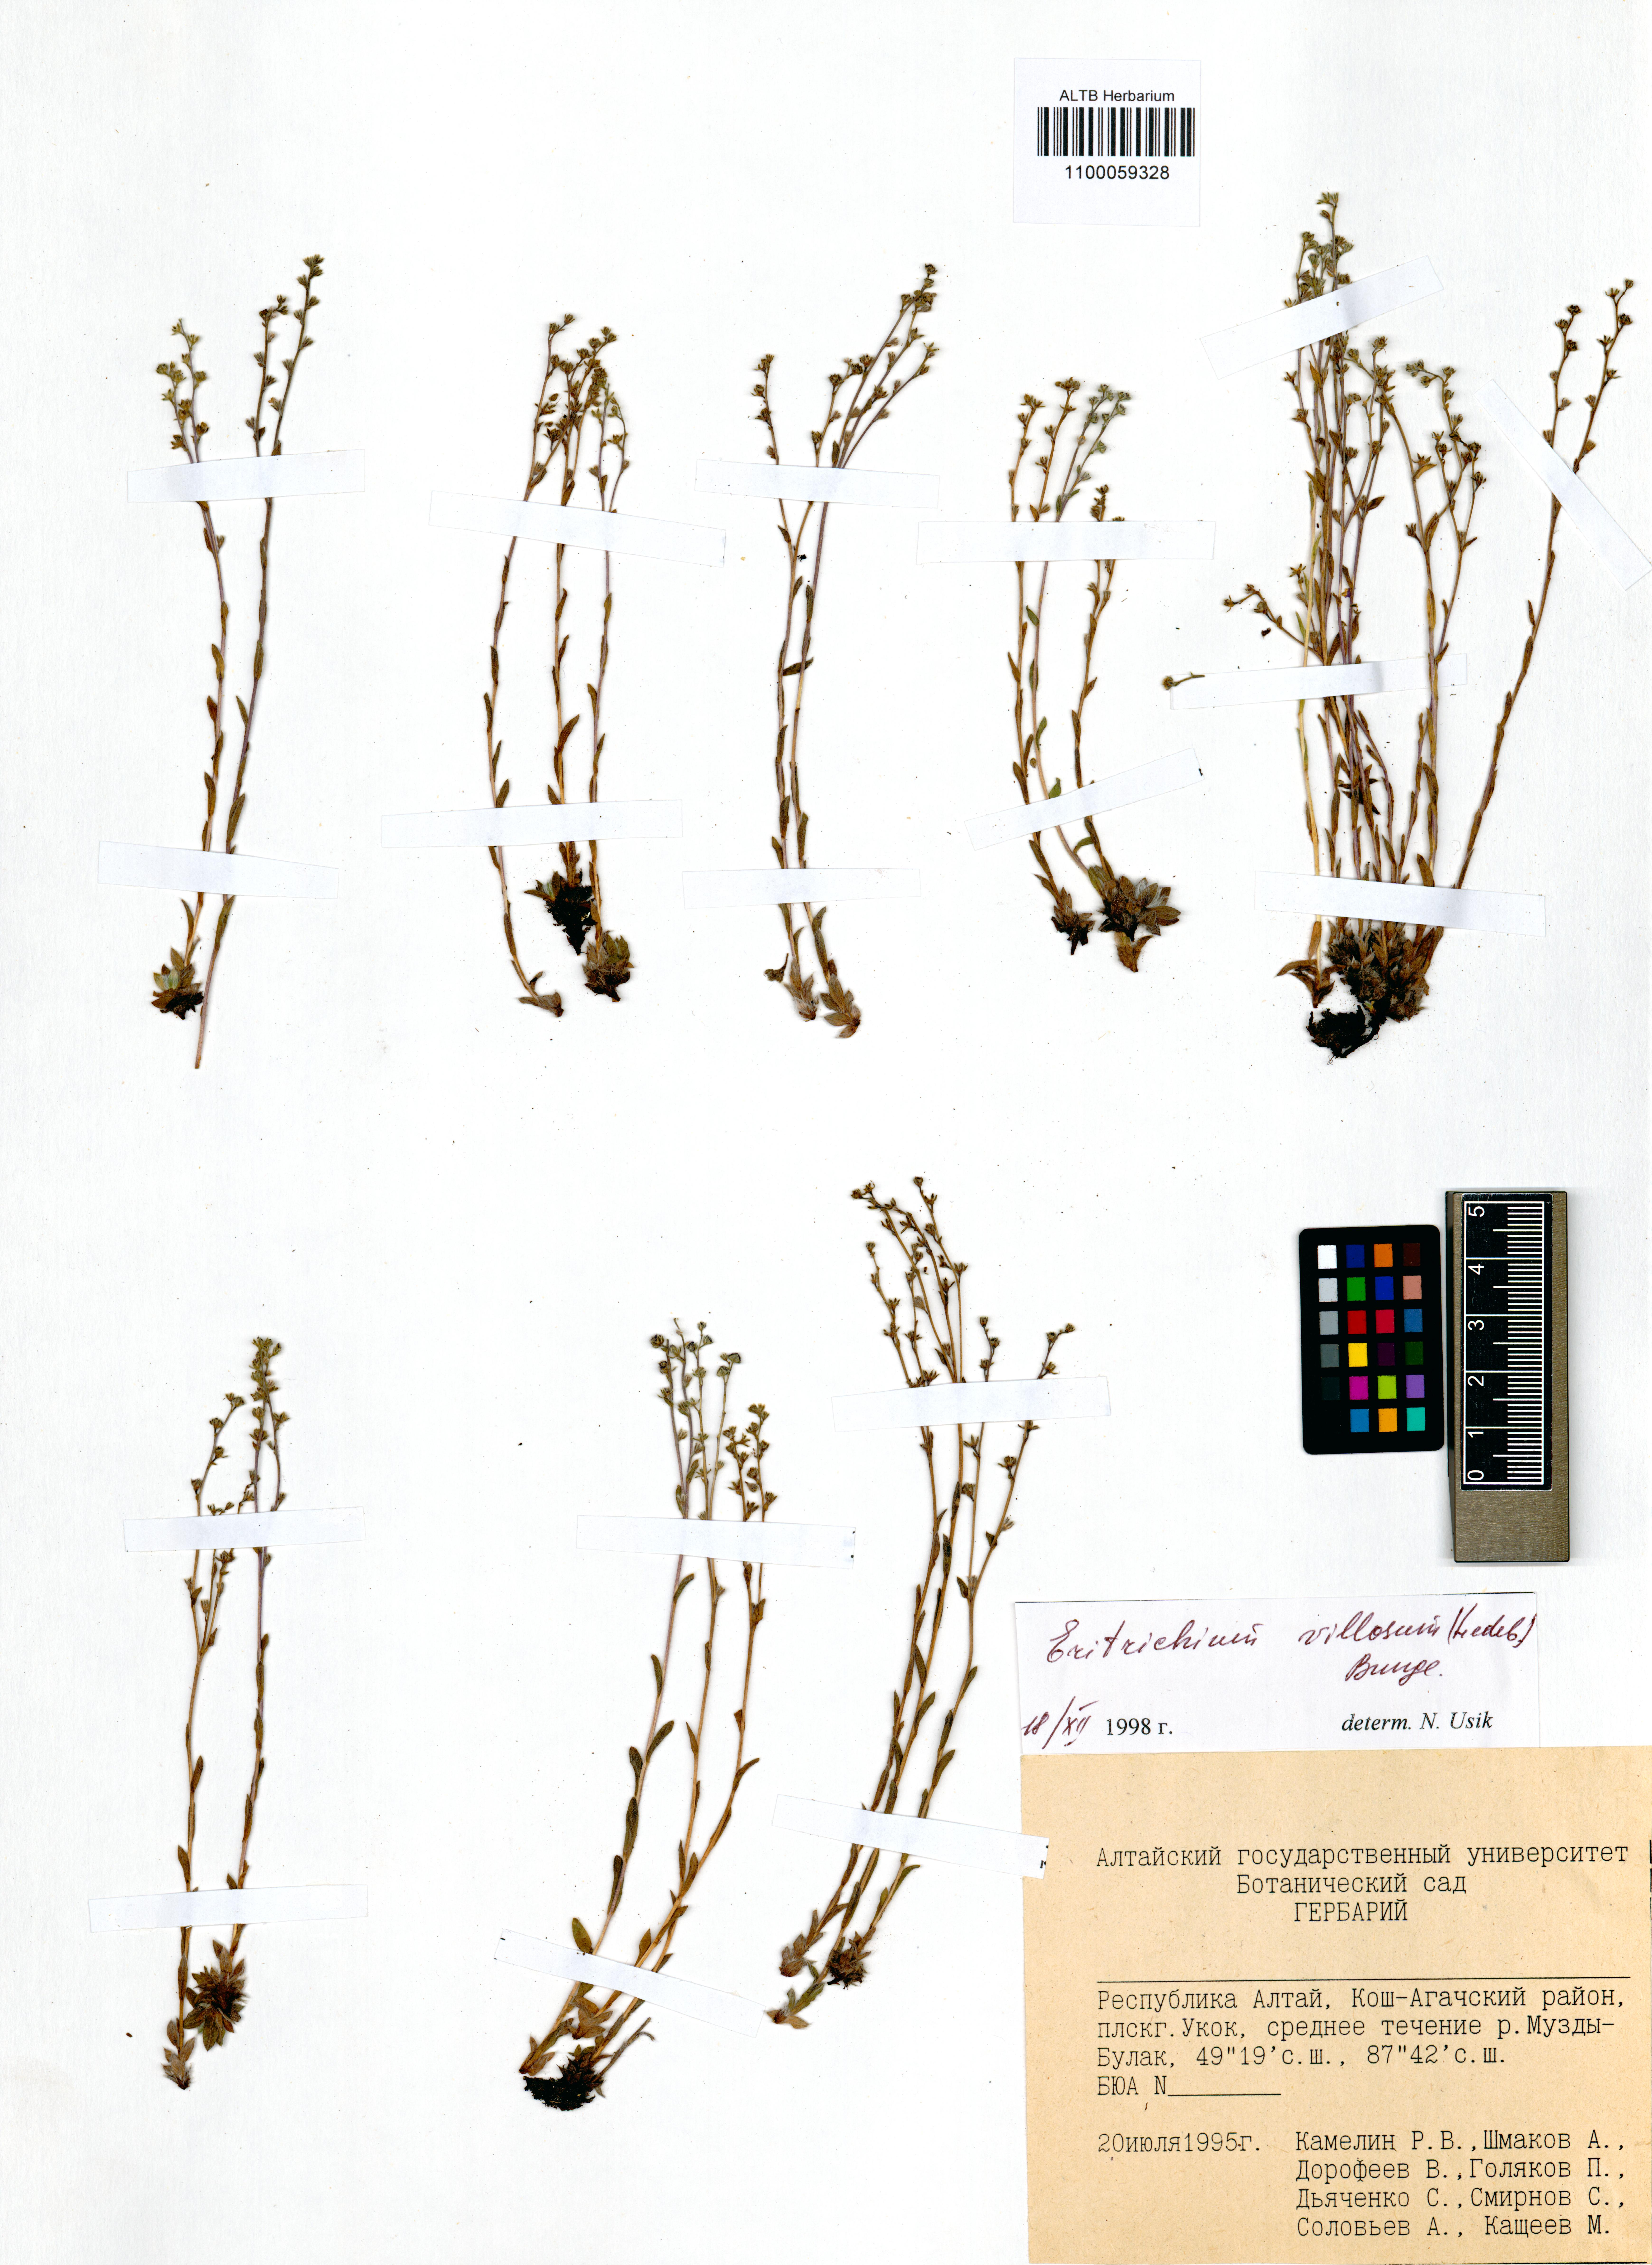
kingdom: Plantae
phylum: Tracheophyta
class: Magnoliopsida
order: Boraginales
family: Boraginaceae
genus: Eritrichium
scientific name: Eritrichium villosum
